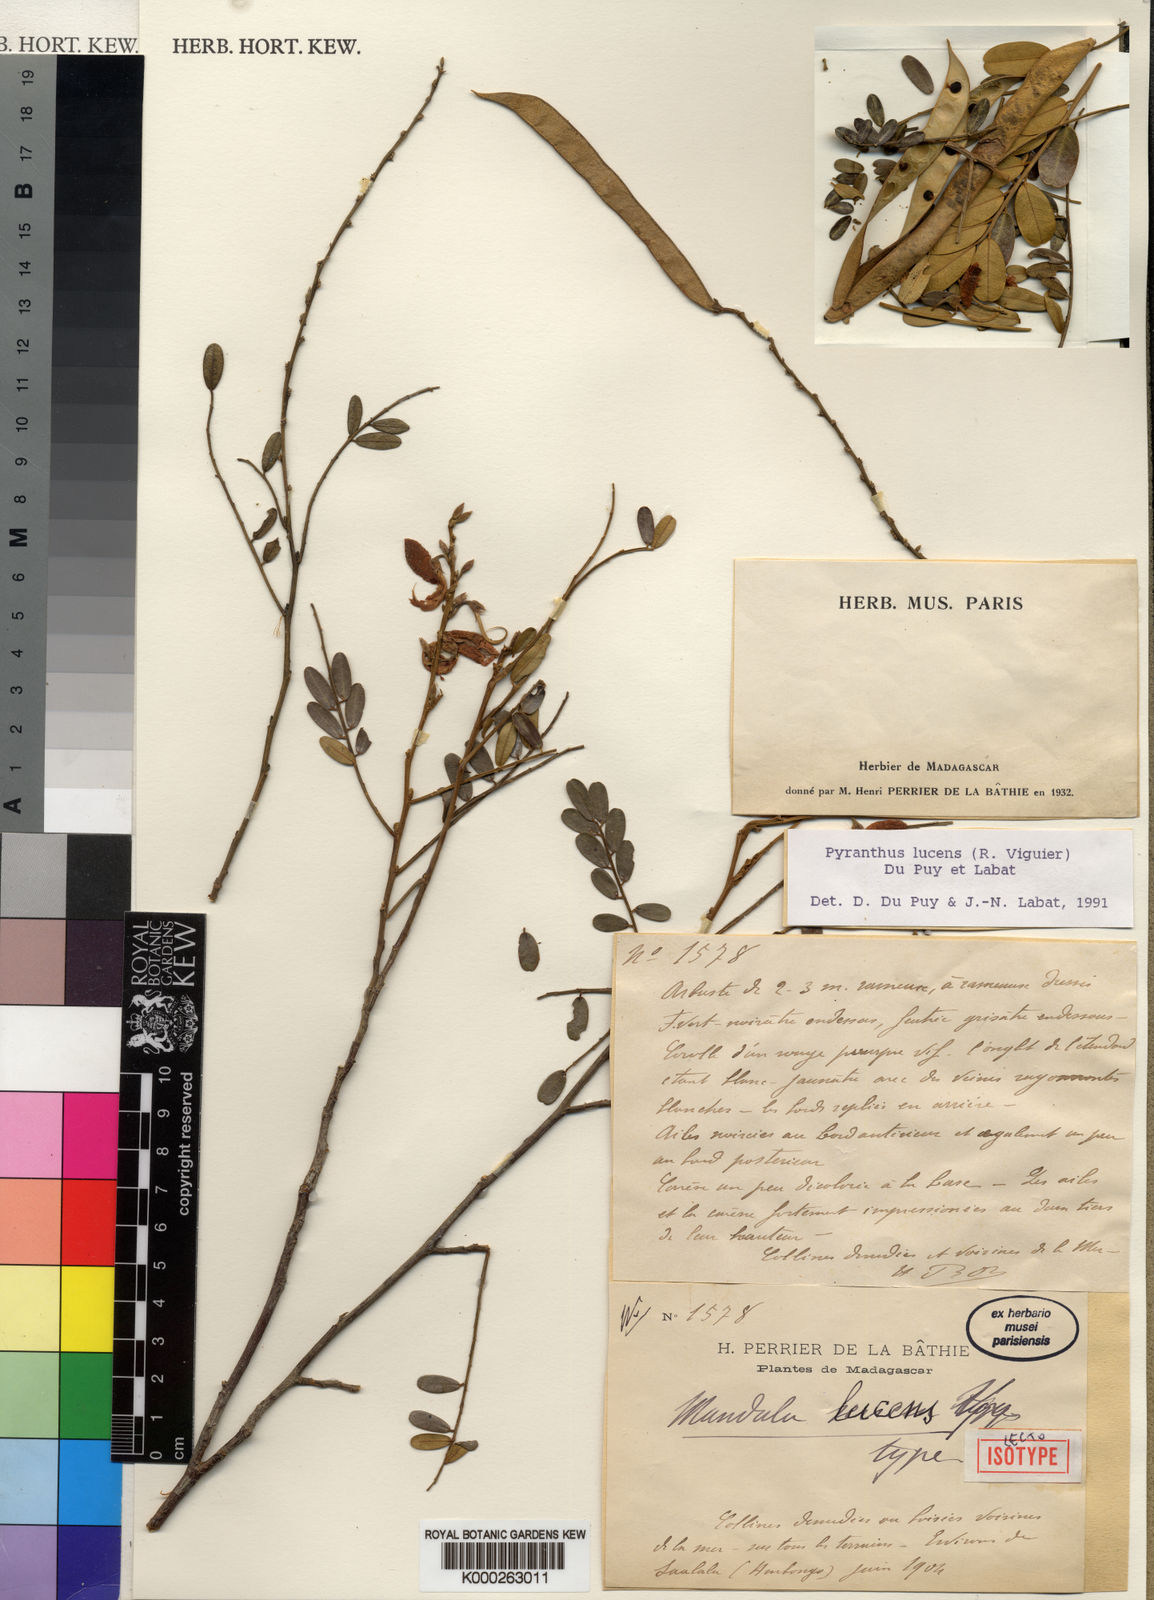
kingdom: Plantae
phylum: Tracheophyta
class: Magnoliopsida
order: Fabales
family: Fabaceae
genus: Pyranthus
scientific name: Pyranthus lucens
